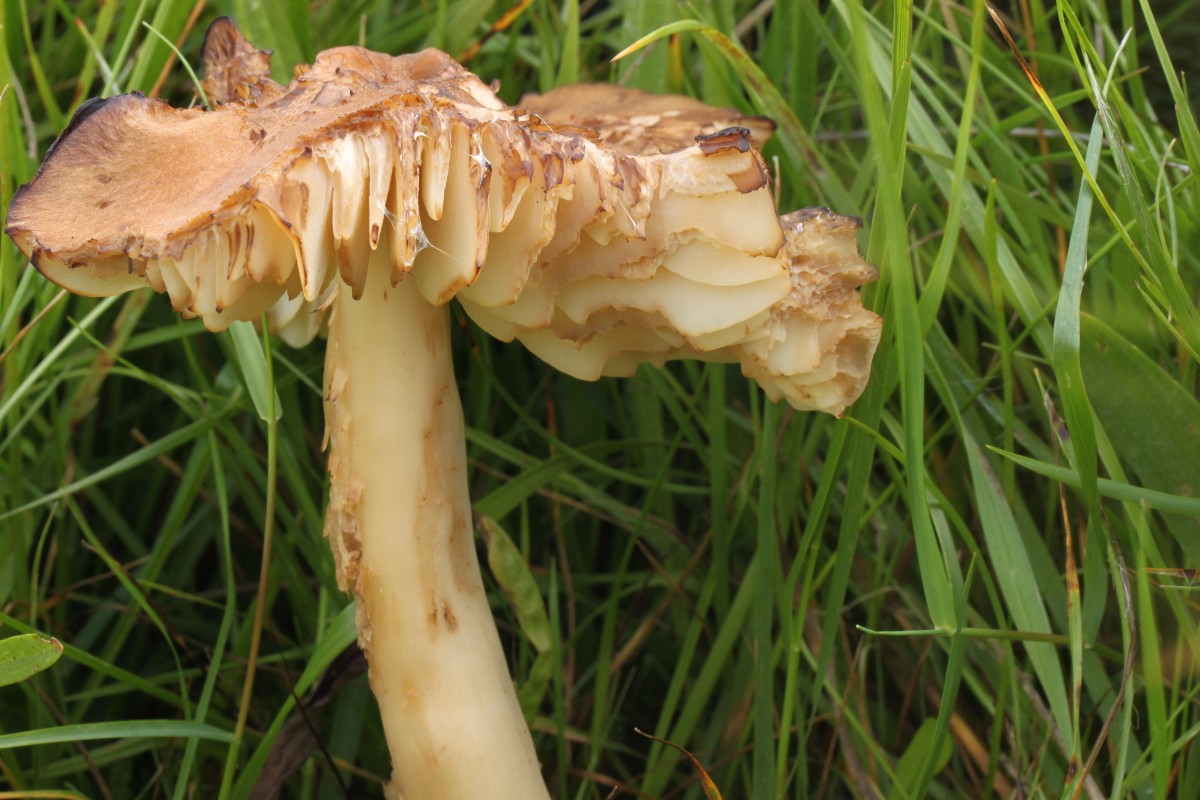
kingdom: Fungi
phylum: Basidiomycota
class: Agaricomycetes
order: Agaricales
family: Hygrophoraceae
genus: Hygrocybe
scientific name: Hygrocybe ingrata
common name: Jensens vokshat
